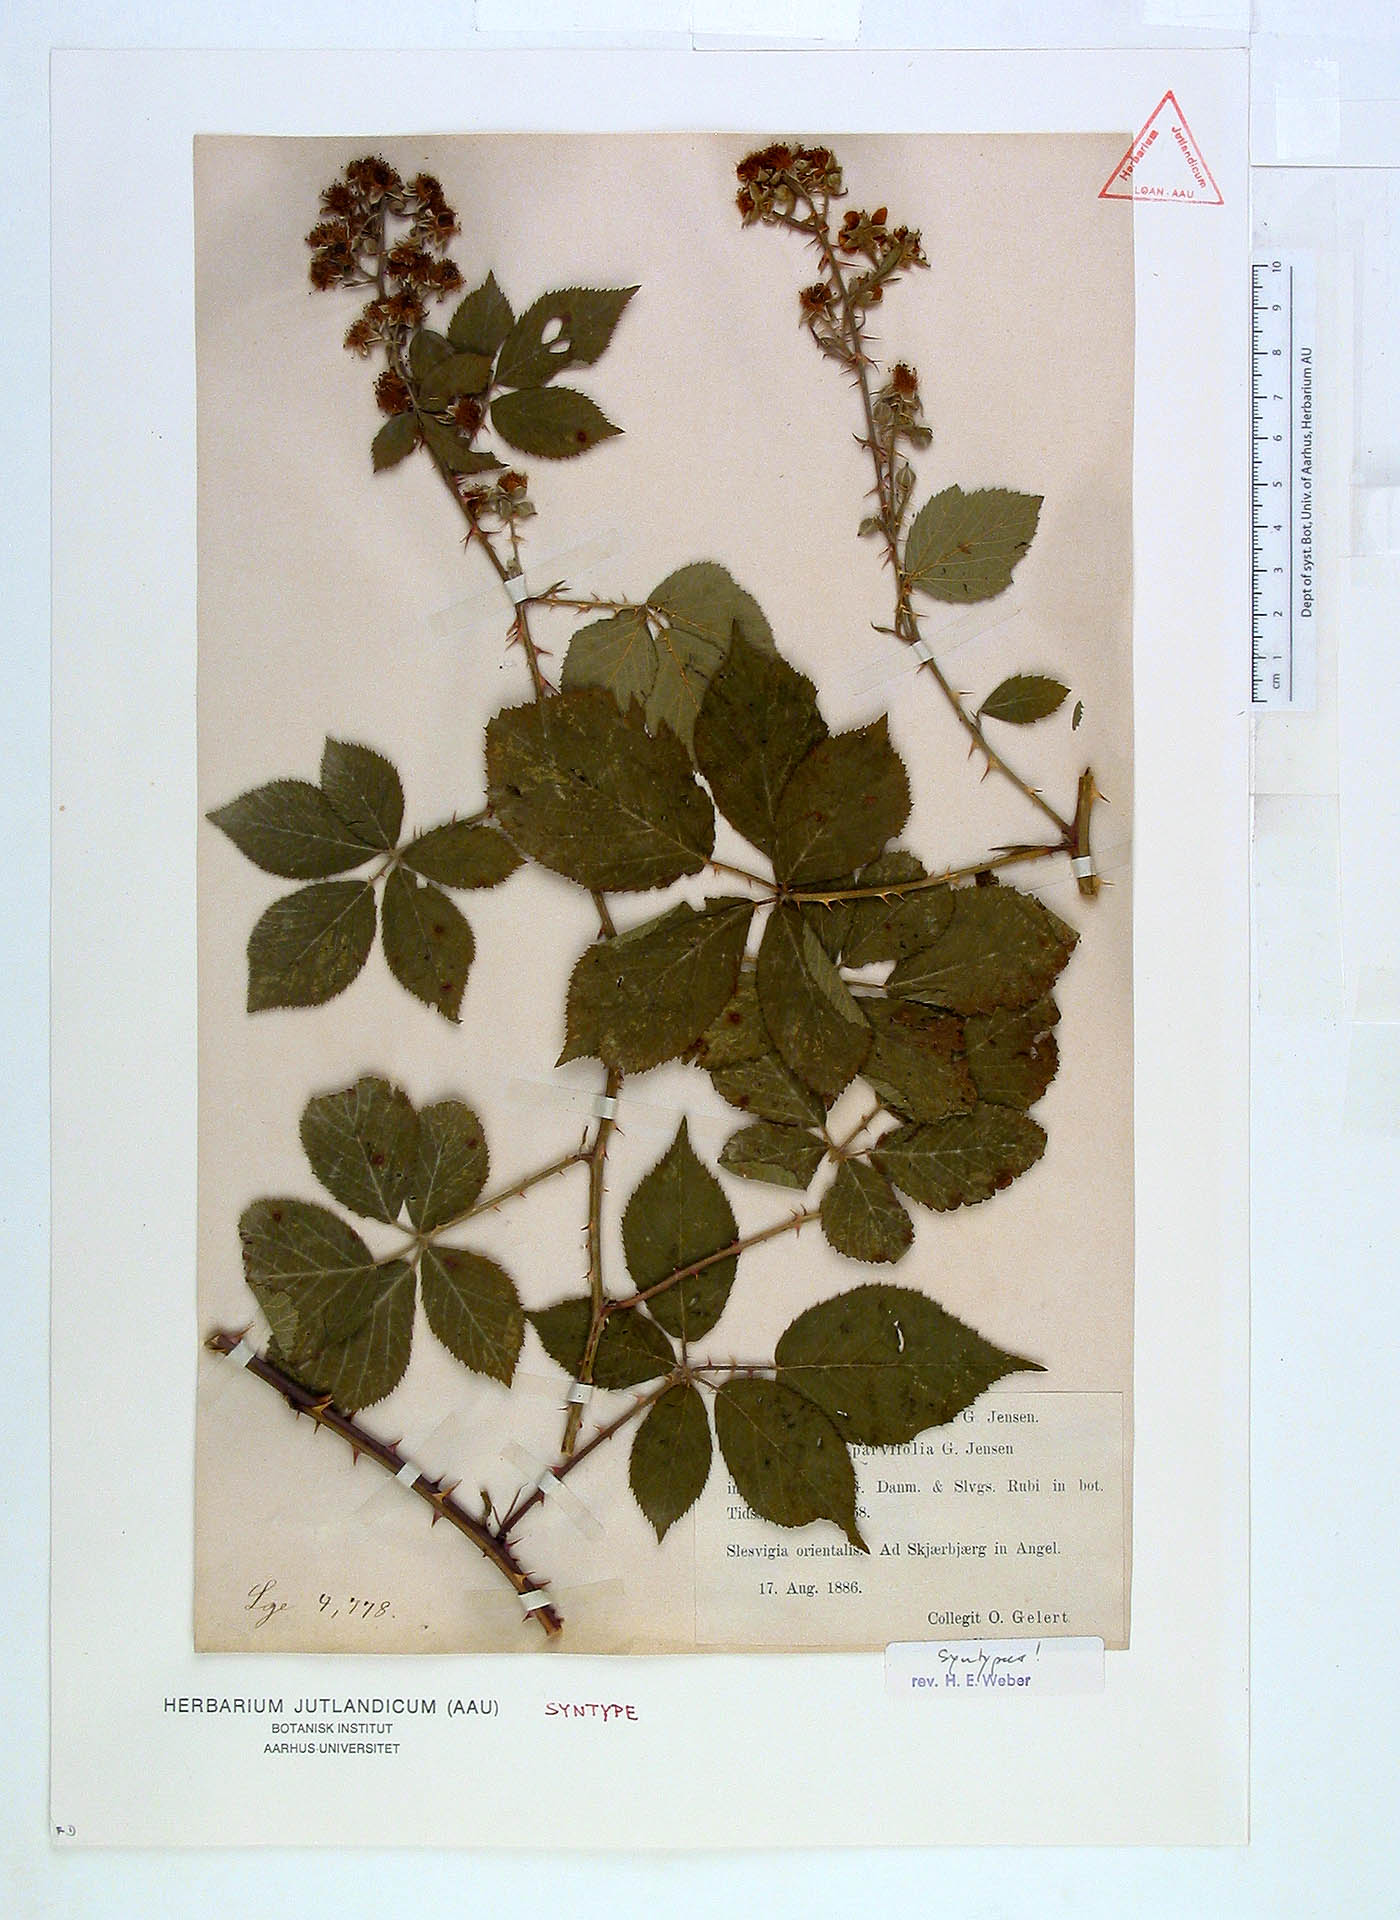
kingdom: Plantae
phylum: Tracheophyta
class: Magnoliopsida
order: Rosales
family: Rosaceae
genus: Rubus
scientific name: Rubus langei
